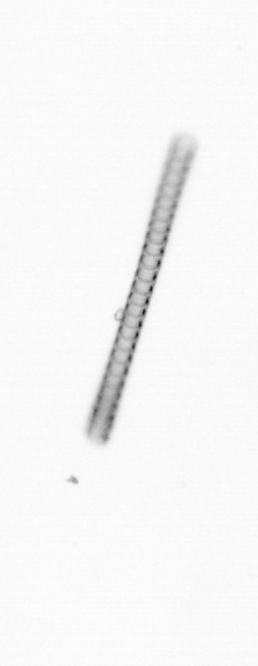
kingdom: Chromista
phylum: Ochrophyta
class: Bacillariophyceae
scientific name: Bacillariophyceae
